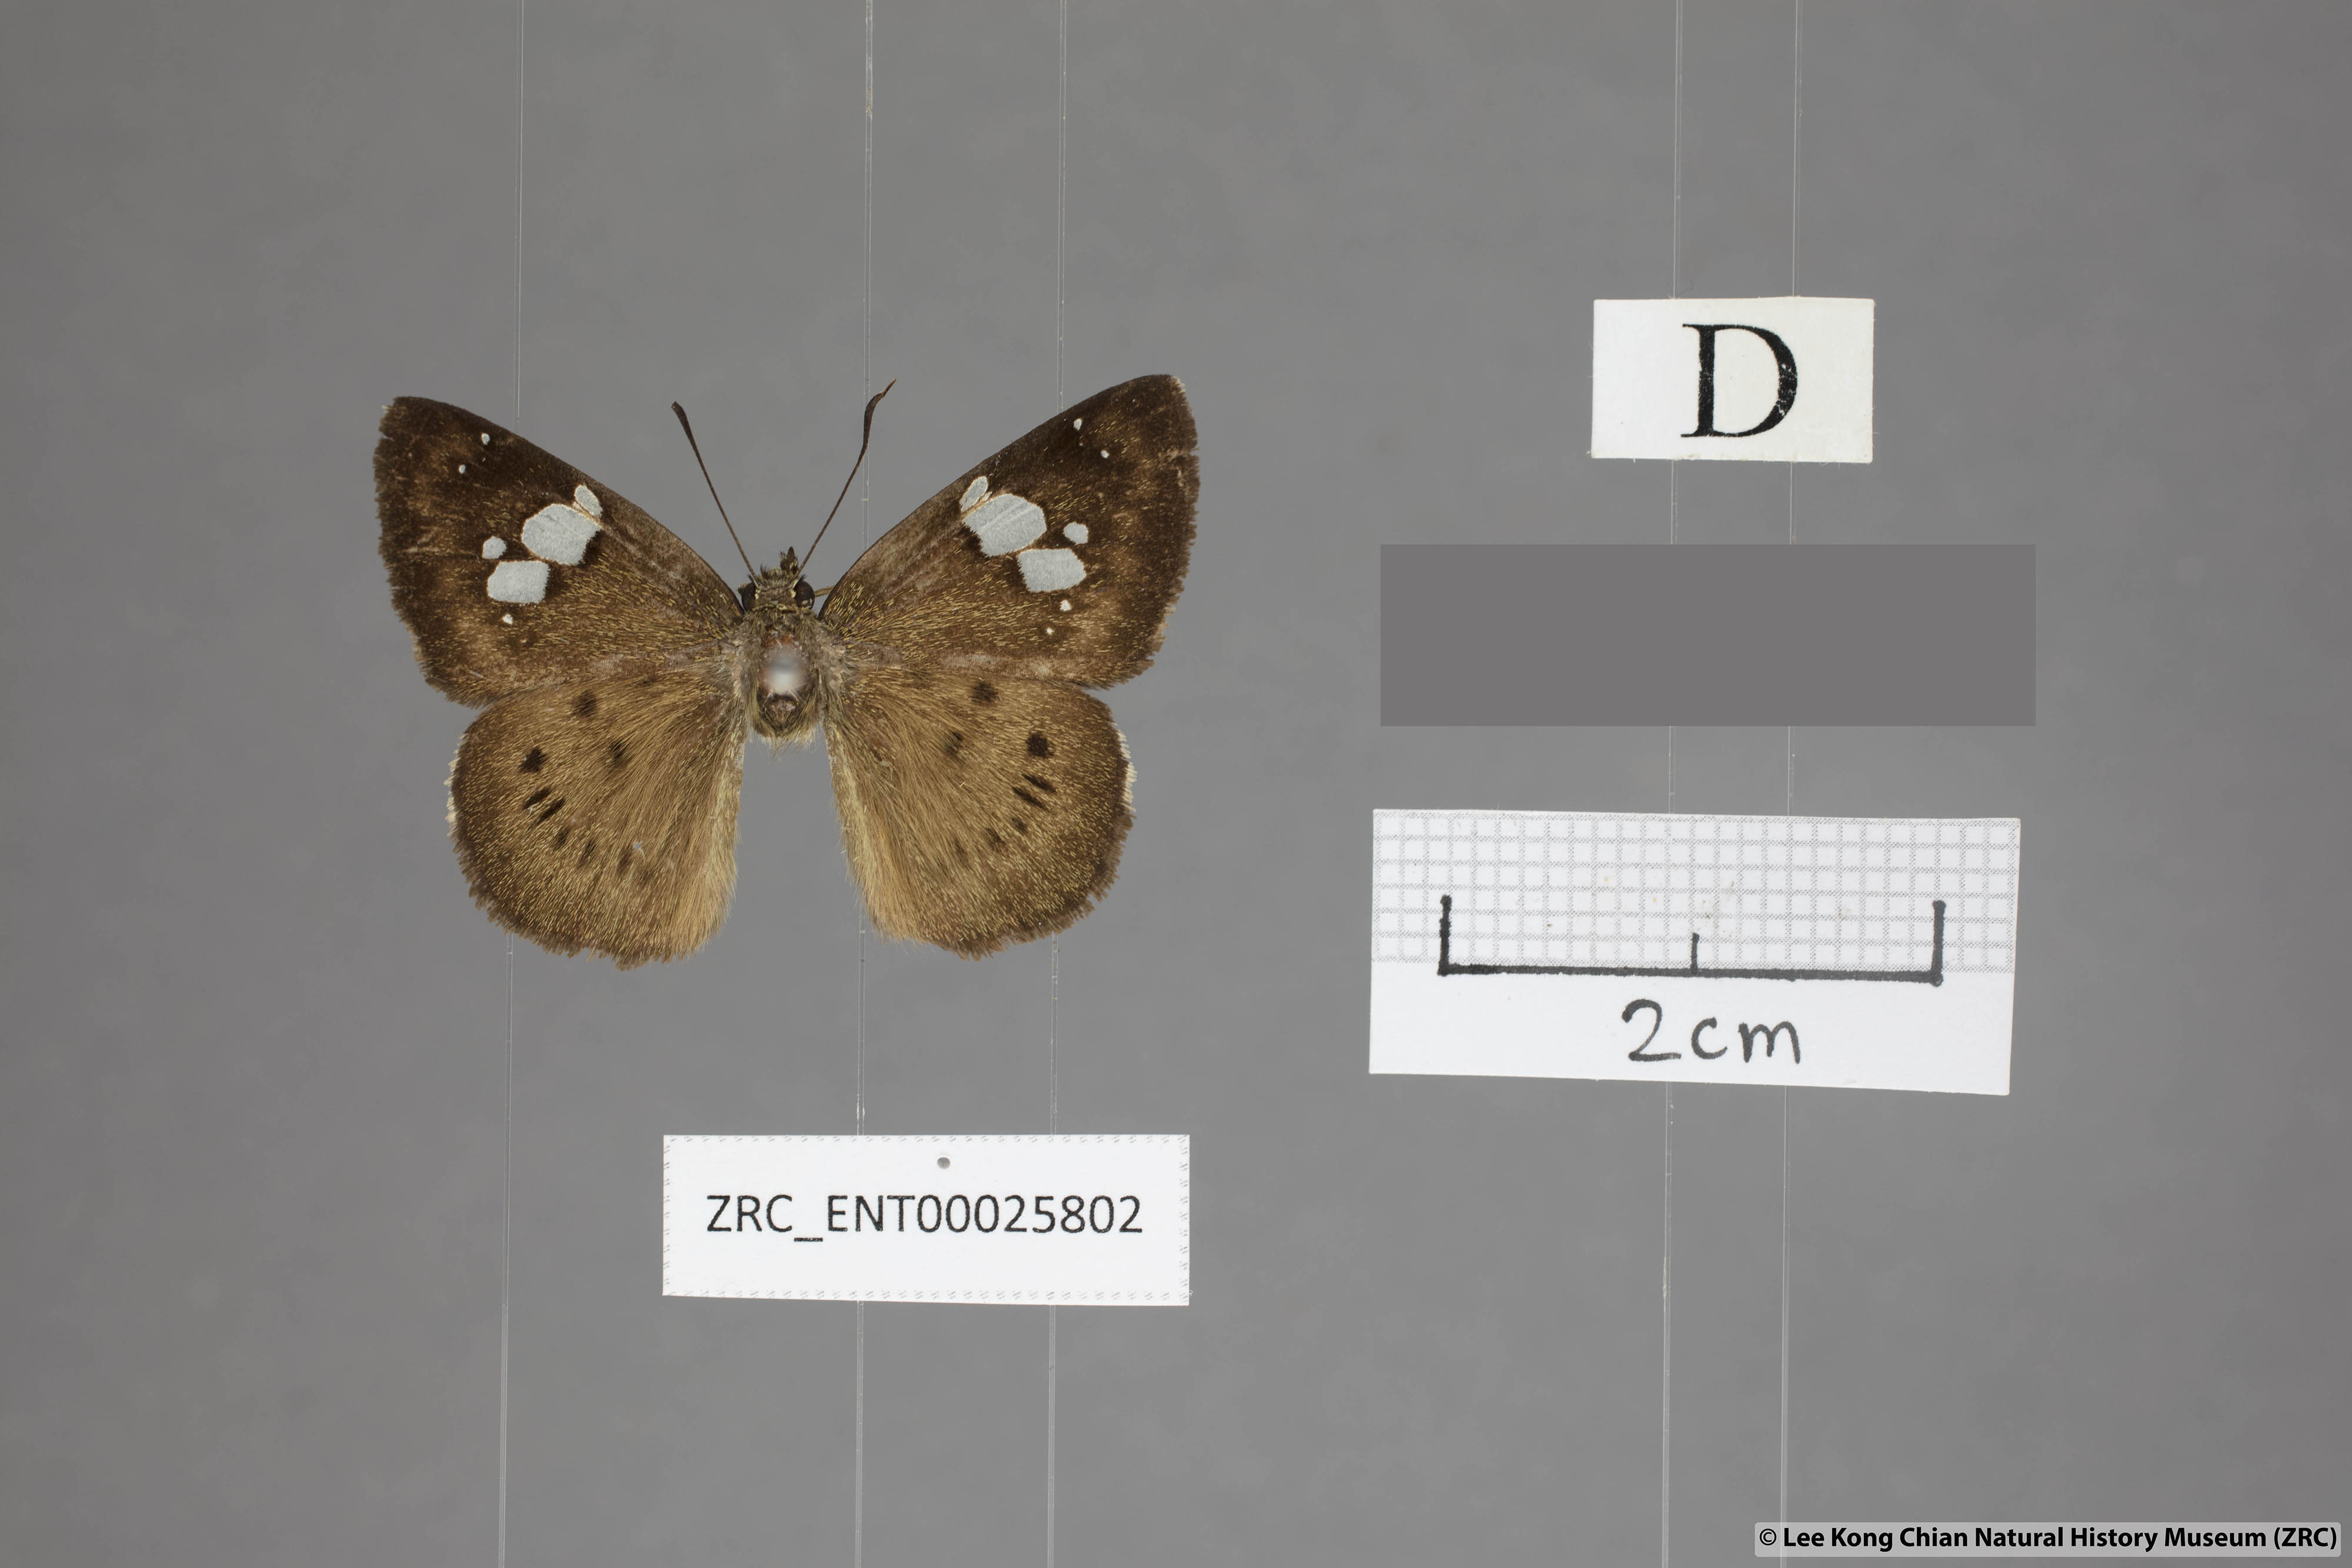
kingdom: Animalia
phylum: Arthropoda
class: Insecta
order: Lepidoptera
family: Hesperiidae
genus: Coladenia
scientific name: Coladenia agnioides
